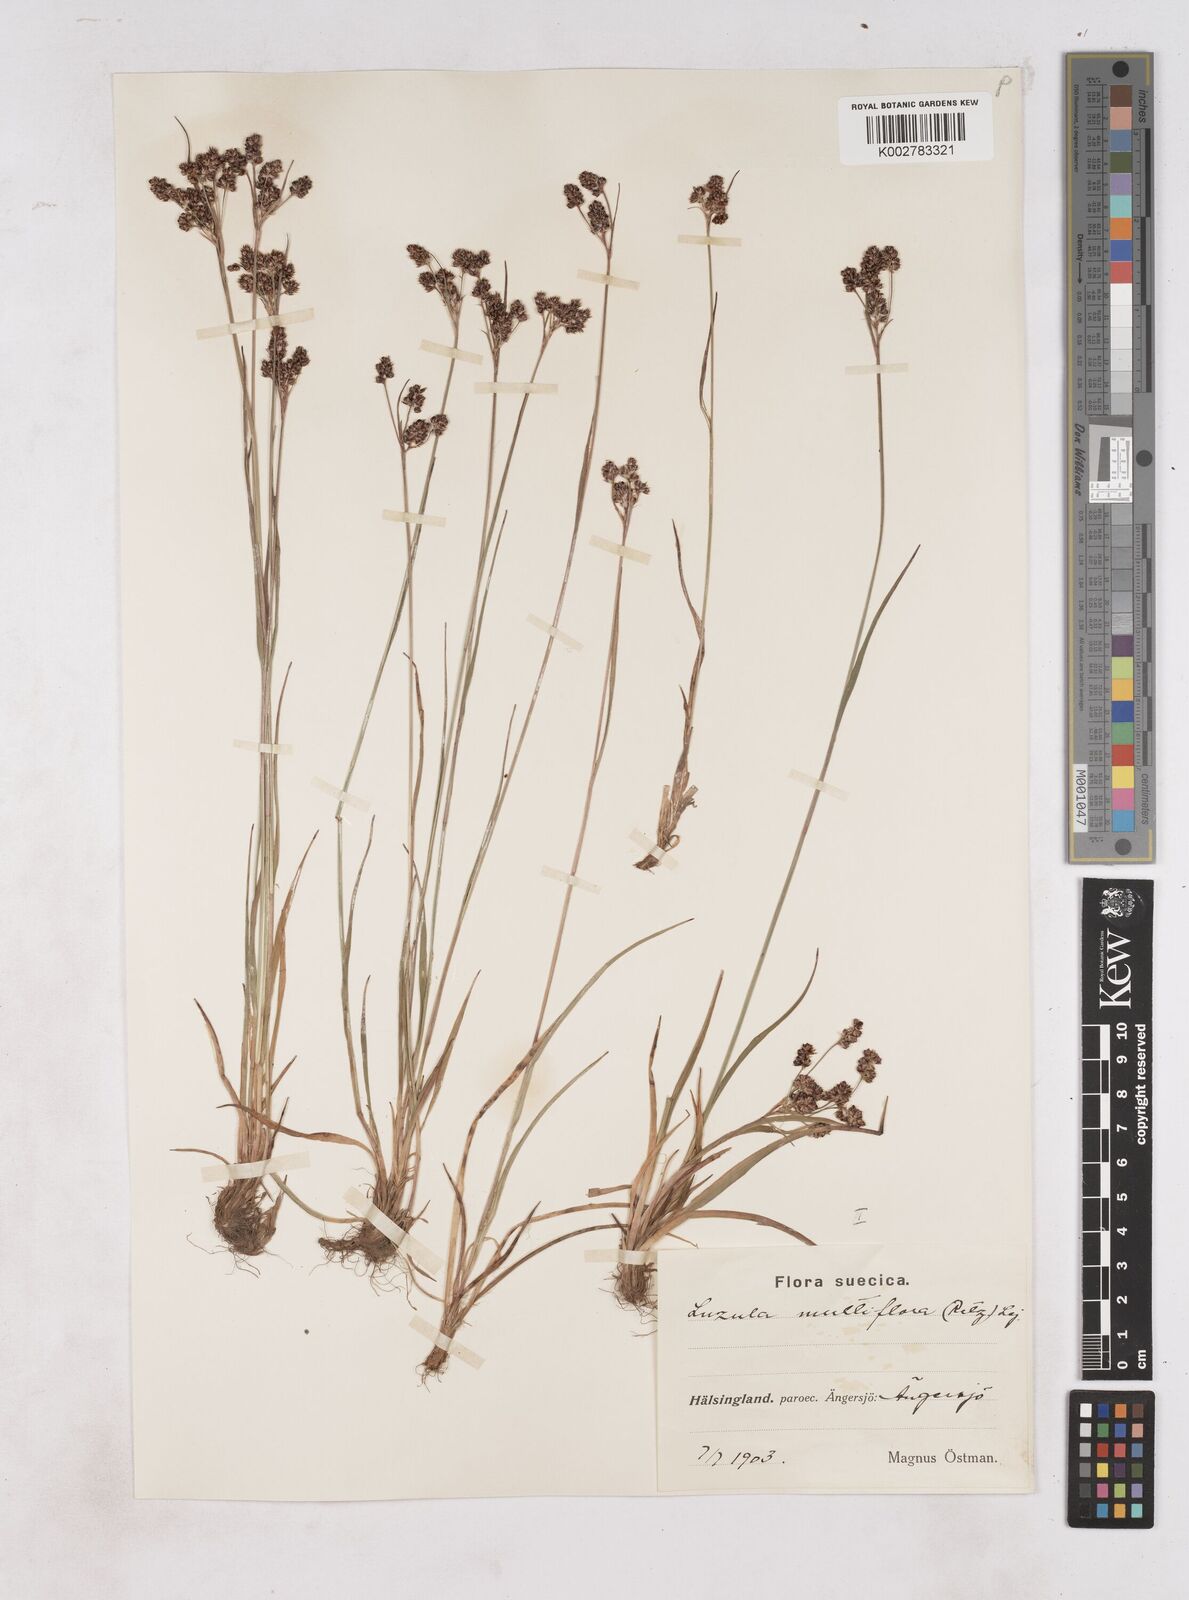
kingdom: Plantae
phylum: Tracheophyta
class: Liliopsida
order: Poales
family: Juncaceae
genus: Luzula
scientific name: Luzula multiflora
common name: Heath wood-rush
